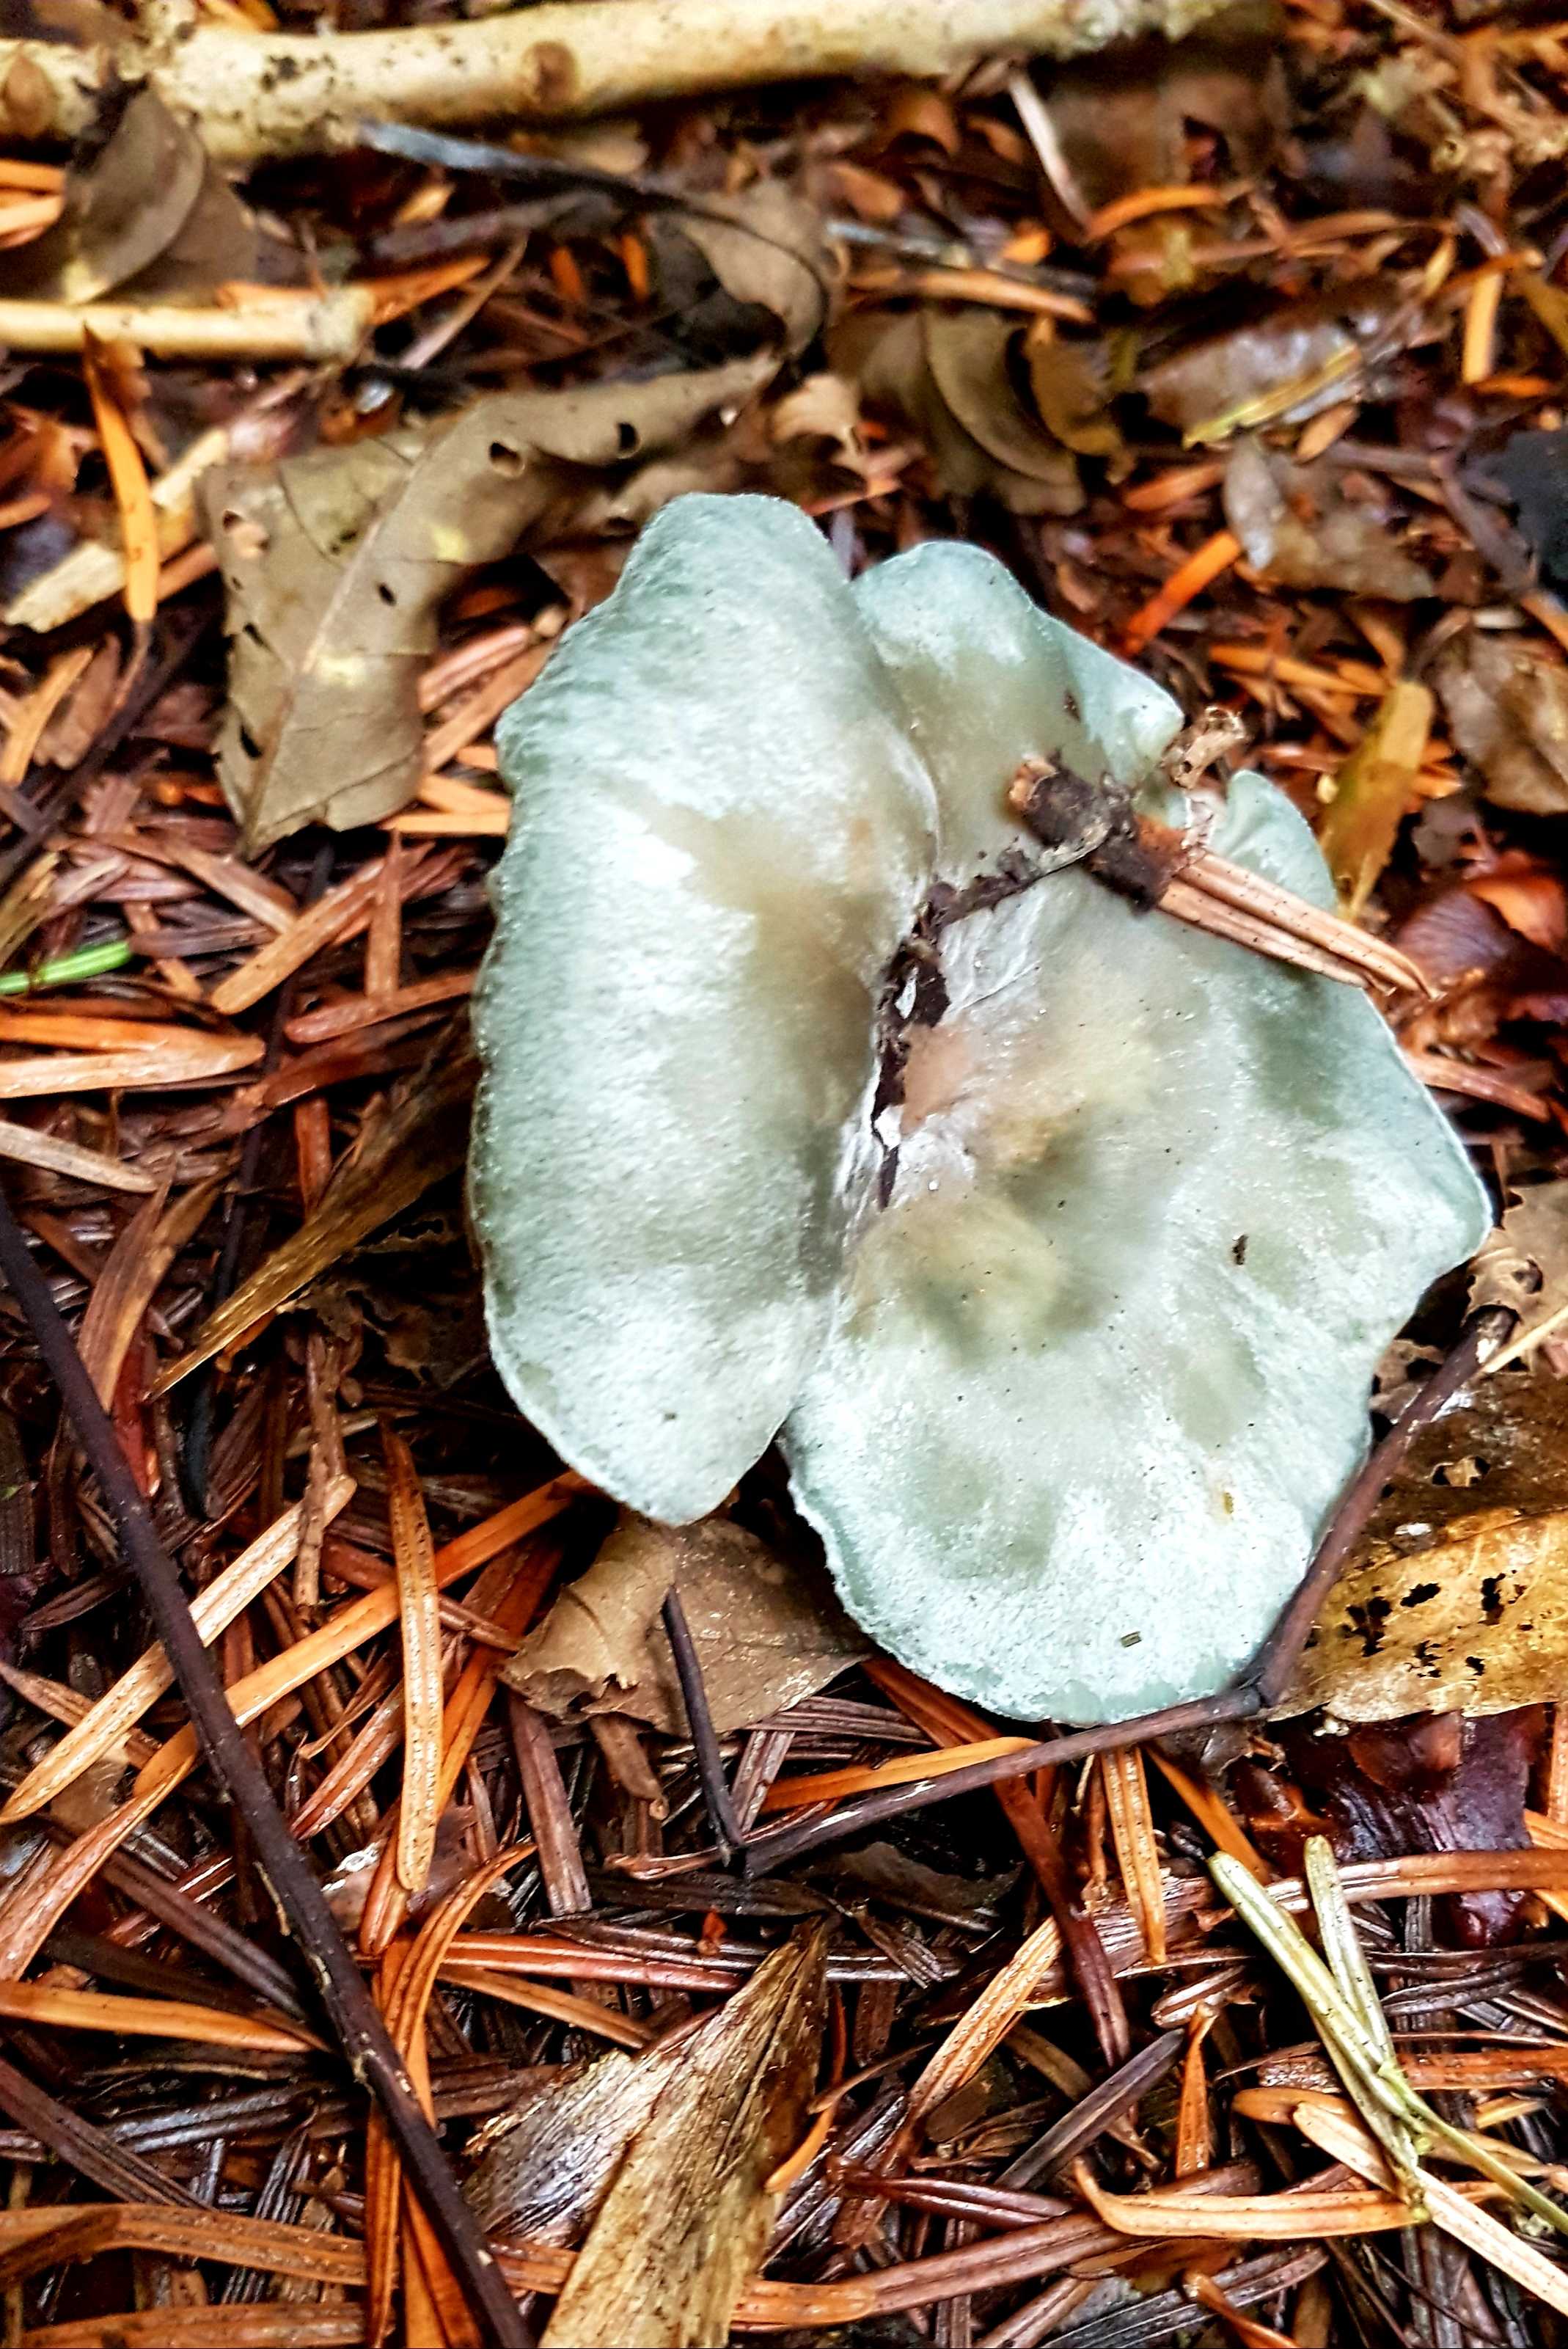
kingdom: Fungi
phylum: Basidiomycota
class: Agaricomycetes
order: Agaricales
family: Tricholomataceae
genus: Clitocybe
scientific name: Clitocybe odora
